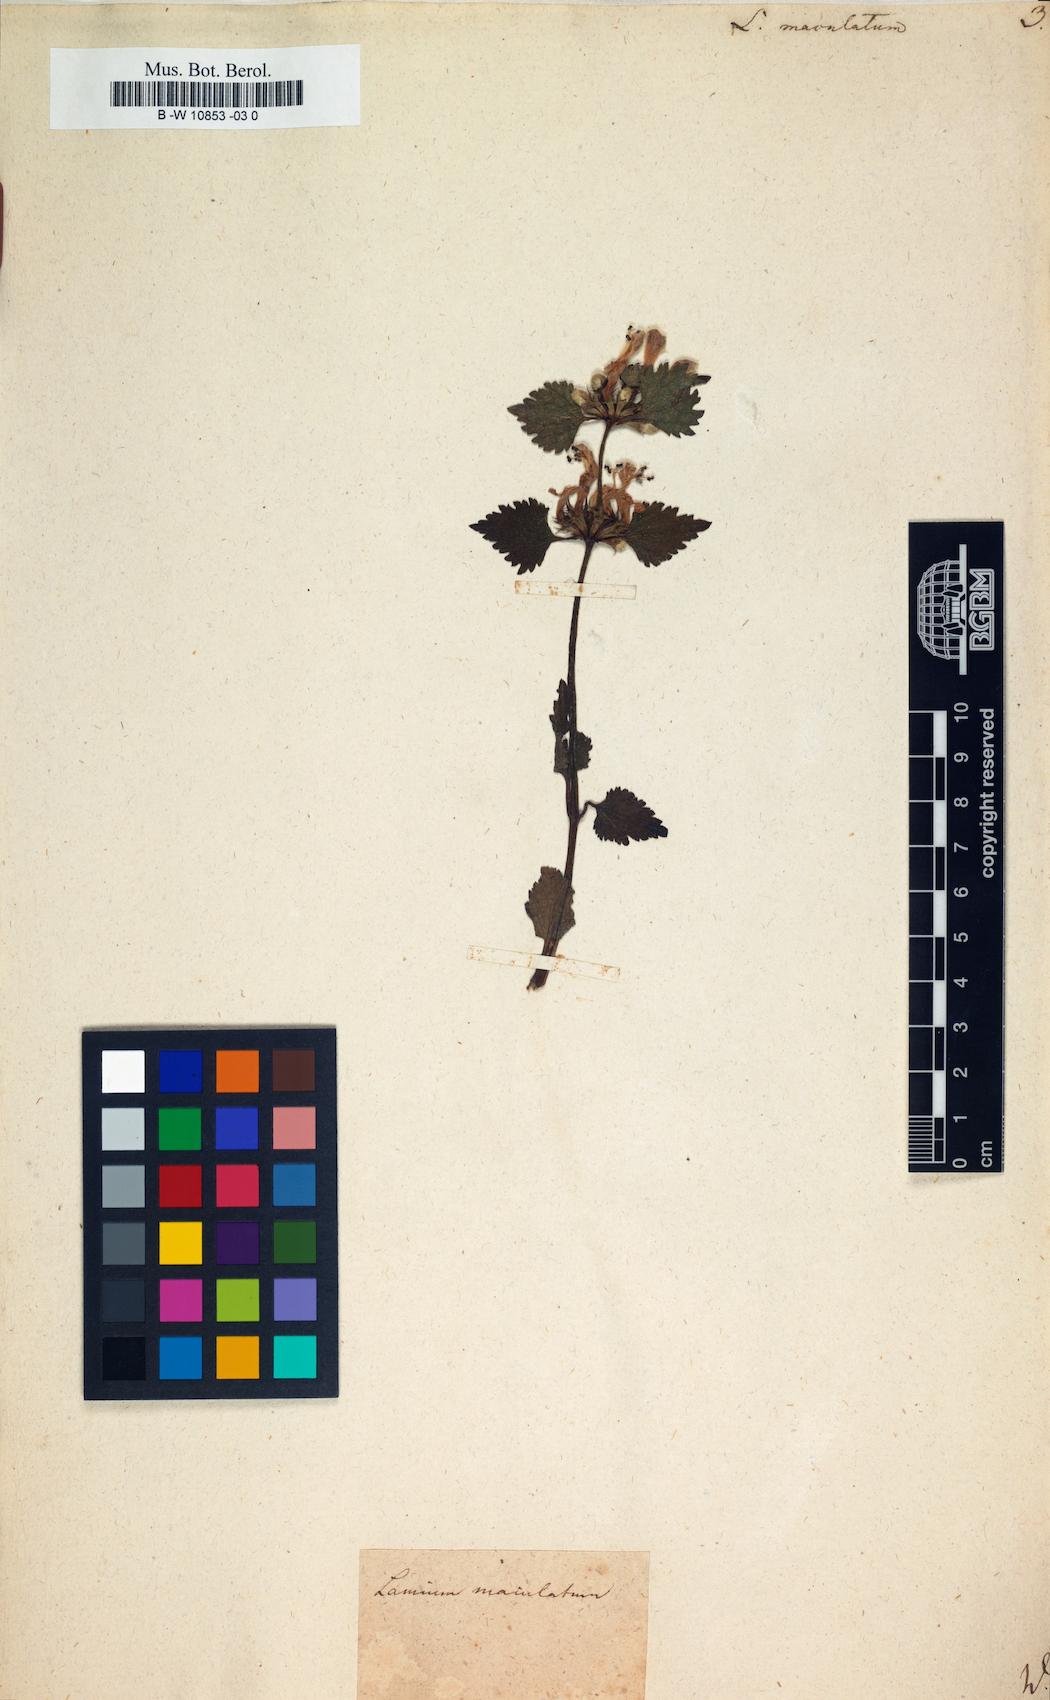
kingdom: Plantae
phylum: Tracheophyta
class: Magnoliopsida
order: Lamiales
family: Lamiaceae
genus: Lamium
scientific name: Lamium maculatum
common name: Spotted dead-nettle
